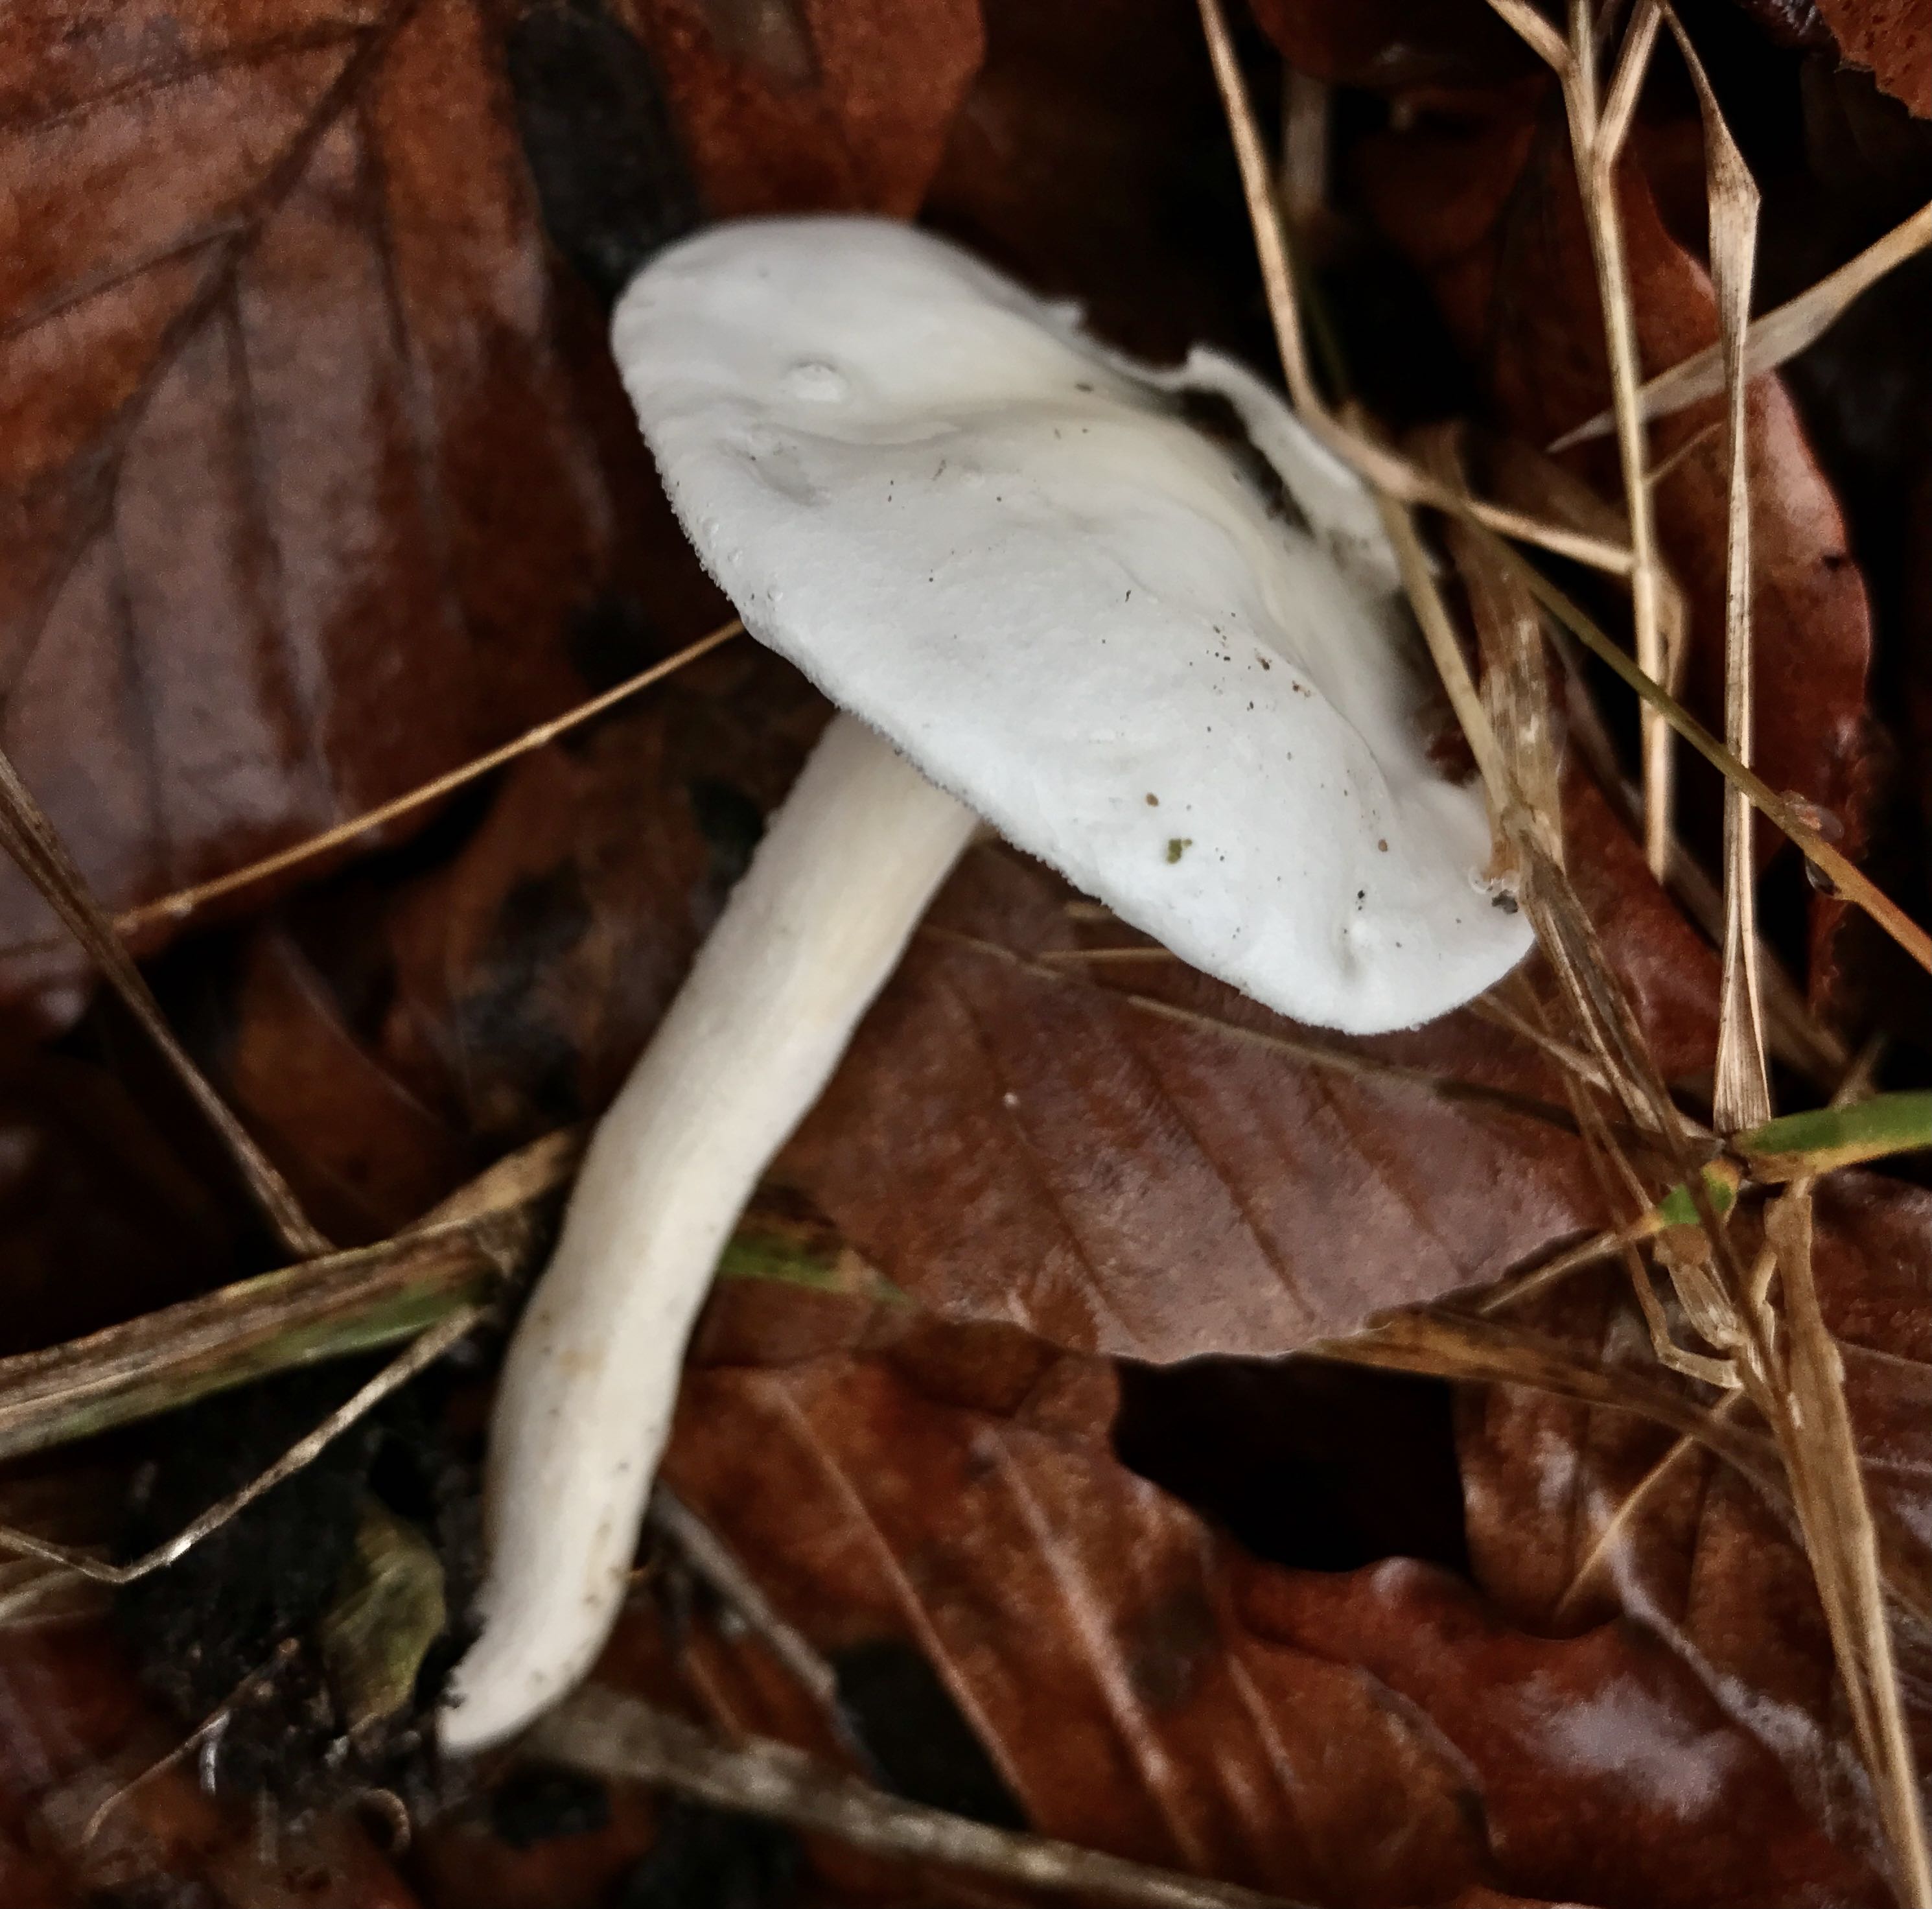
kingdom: Fungi
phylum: Basidiomycota
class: Agaricomycetes
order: Agaricales
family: Hygrophoraceae
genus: Hygrophorus
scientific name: Hygrophorus eburneus
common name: elfenbens-sneglehat
